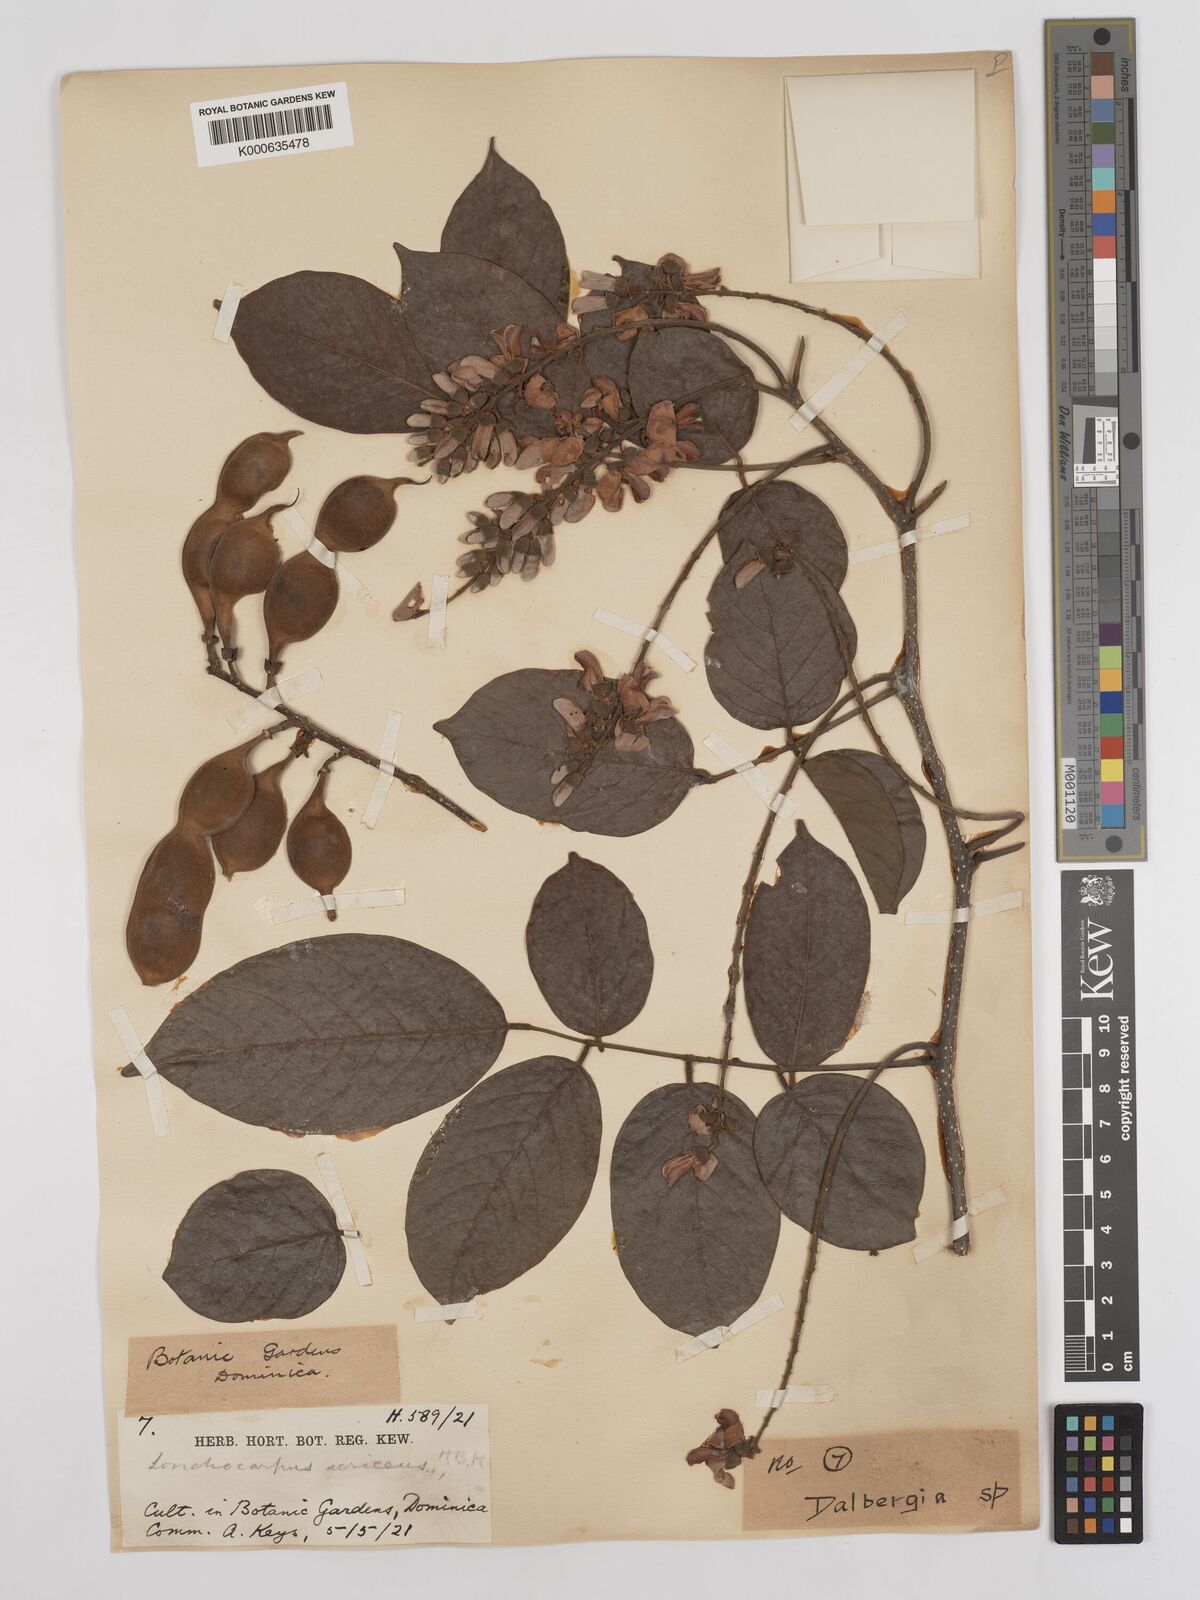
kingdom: Plantae
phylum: Tracheophyta
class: Magnoliopsida
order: Fabales
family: Fabaceae
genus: Lonchocarpus
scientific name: Lonchocarpus palmeri
